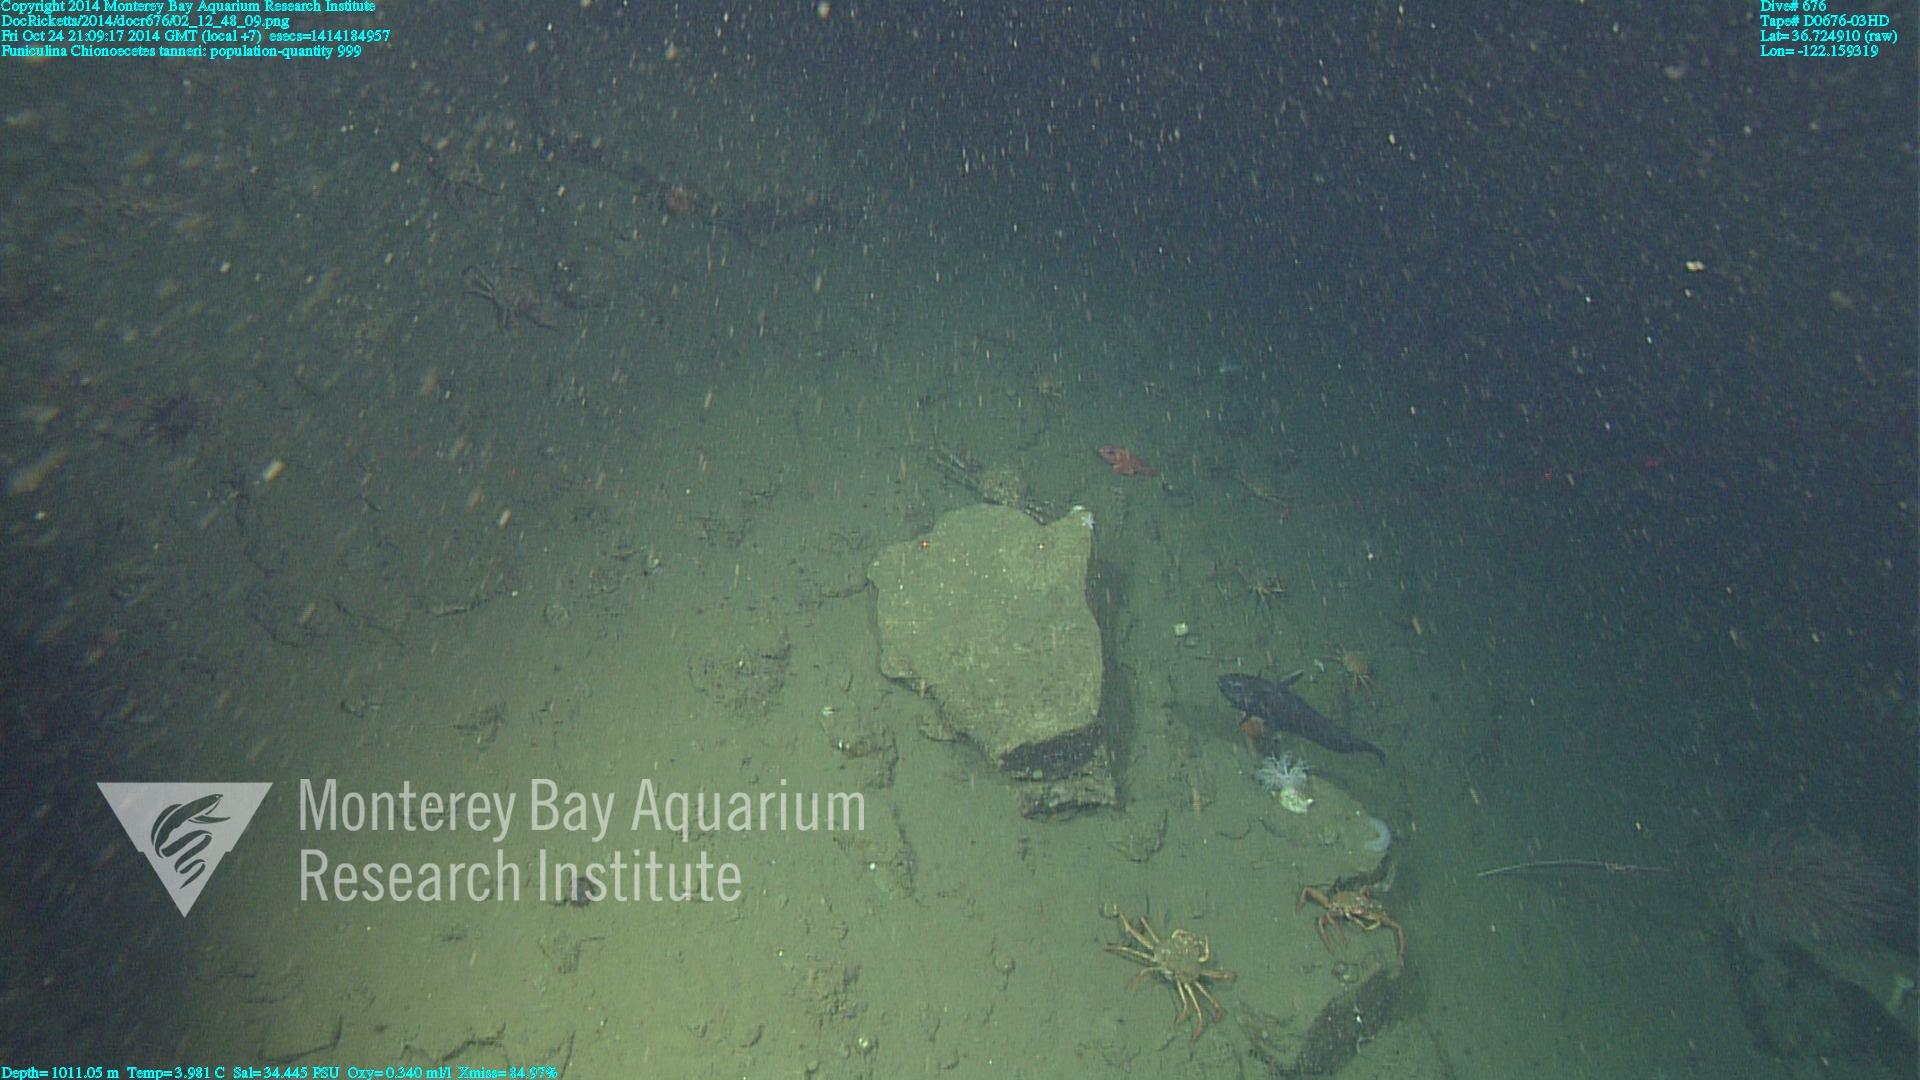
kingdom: Animalia
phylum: Cnidaria
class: Anthozoa
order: Scleralcyonacea
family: Funiculinidae
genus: Funiculina
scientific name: Funiculina
